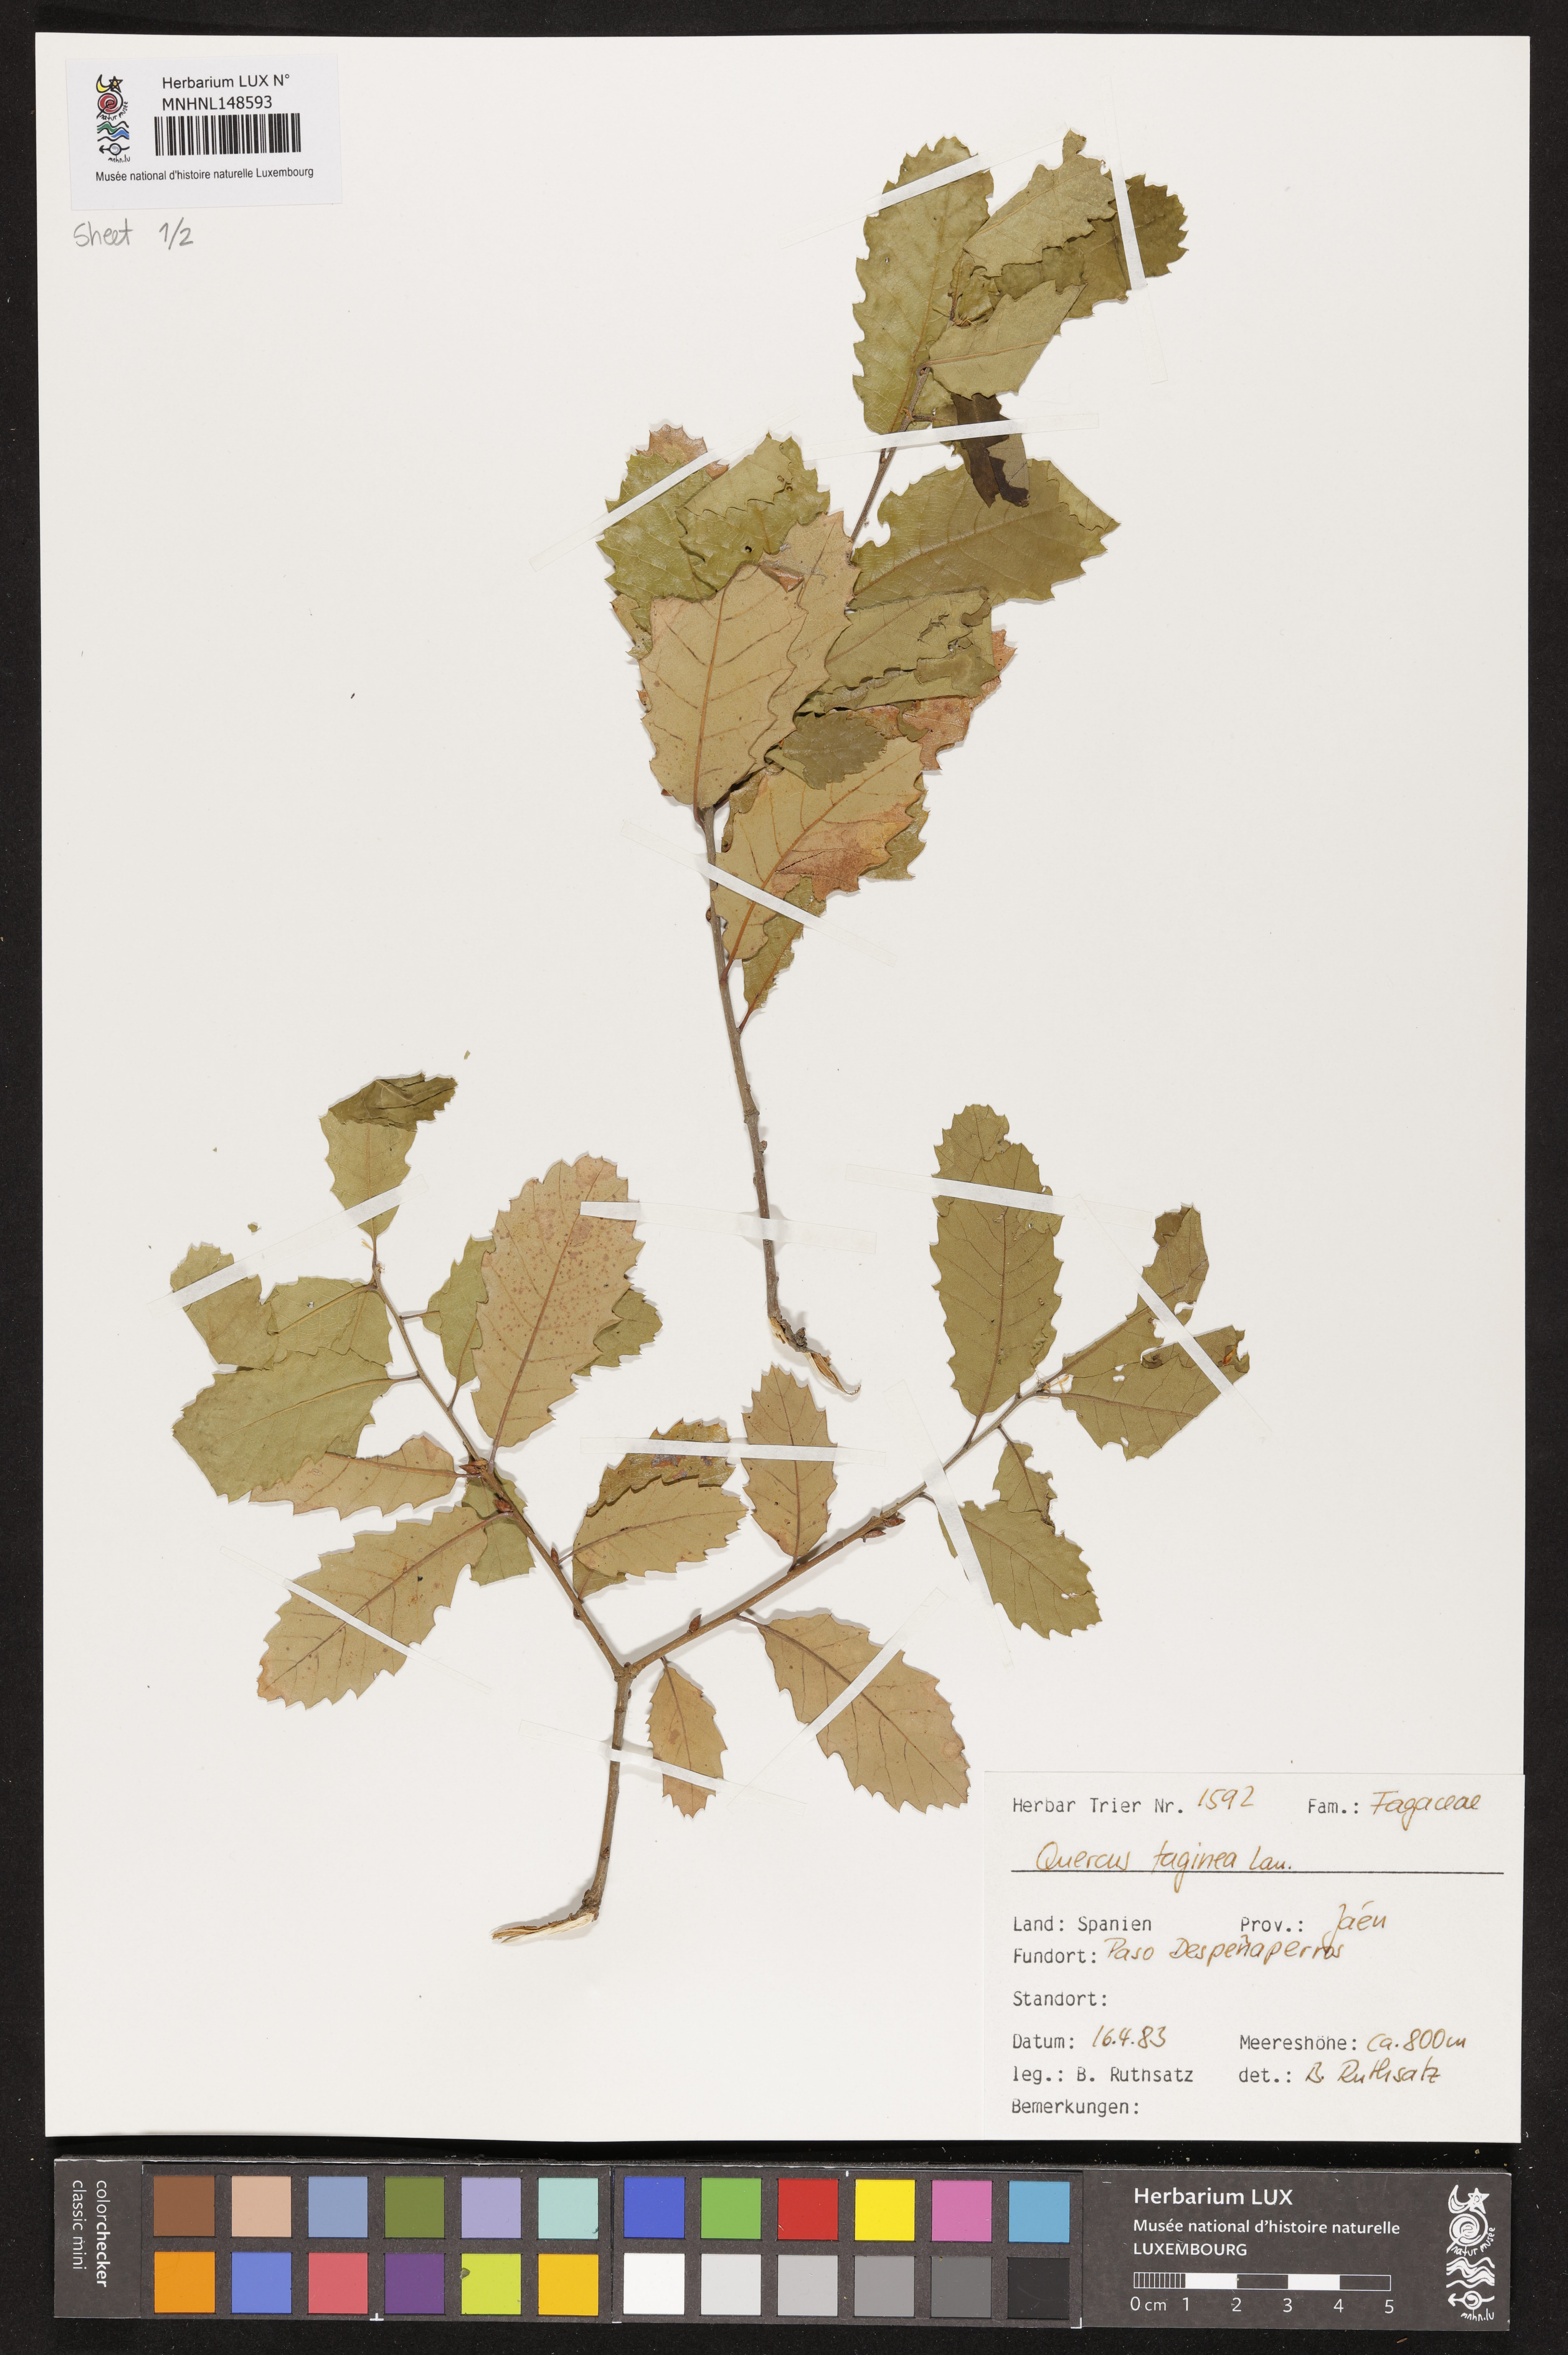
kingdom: Plantae
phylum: Tracheophyta
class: Magnoliopsida
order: Fagales
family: Fagaceae
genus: Quercus
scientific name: Quercus faginea
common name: Gall oak tree
